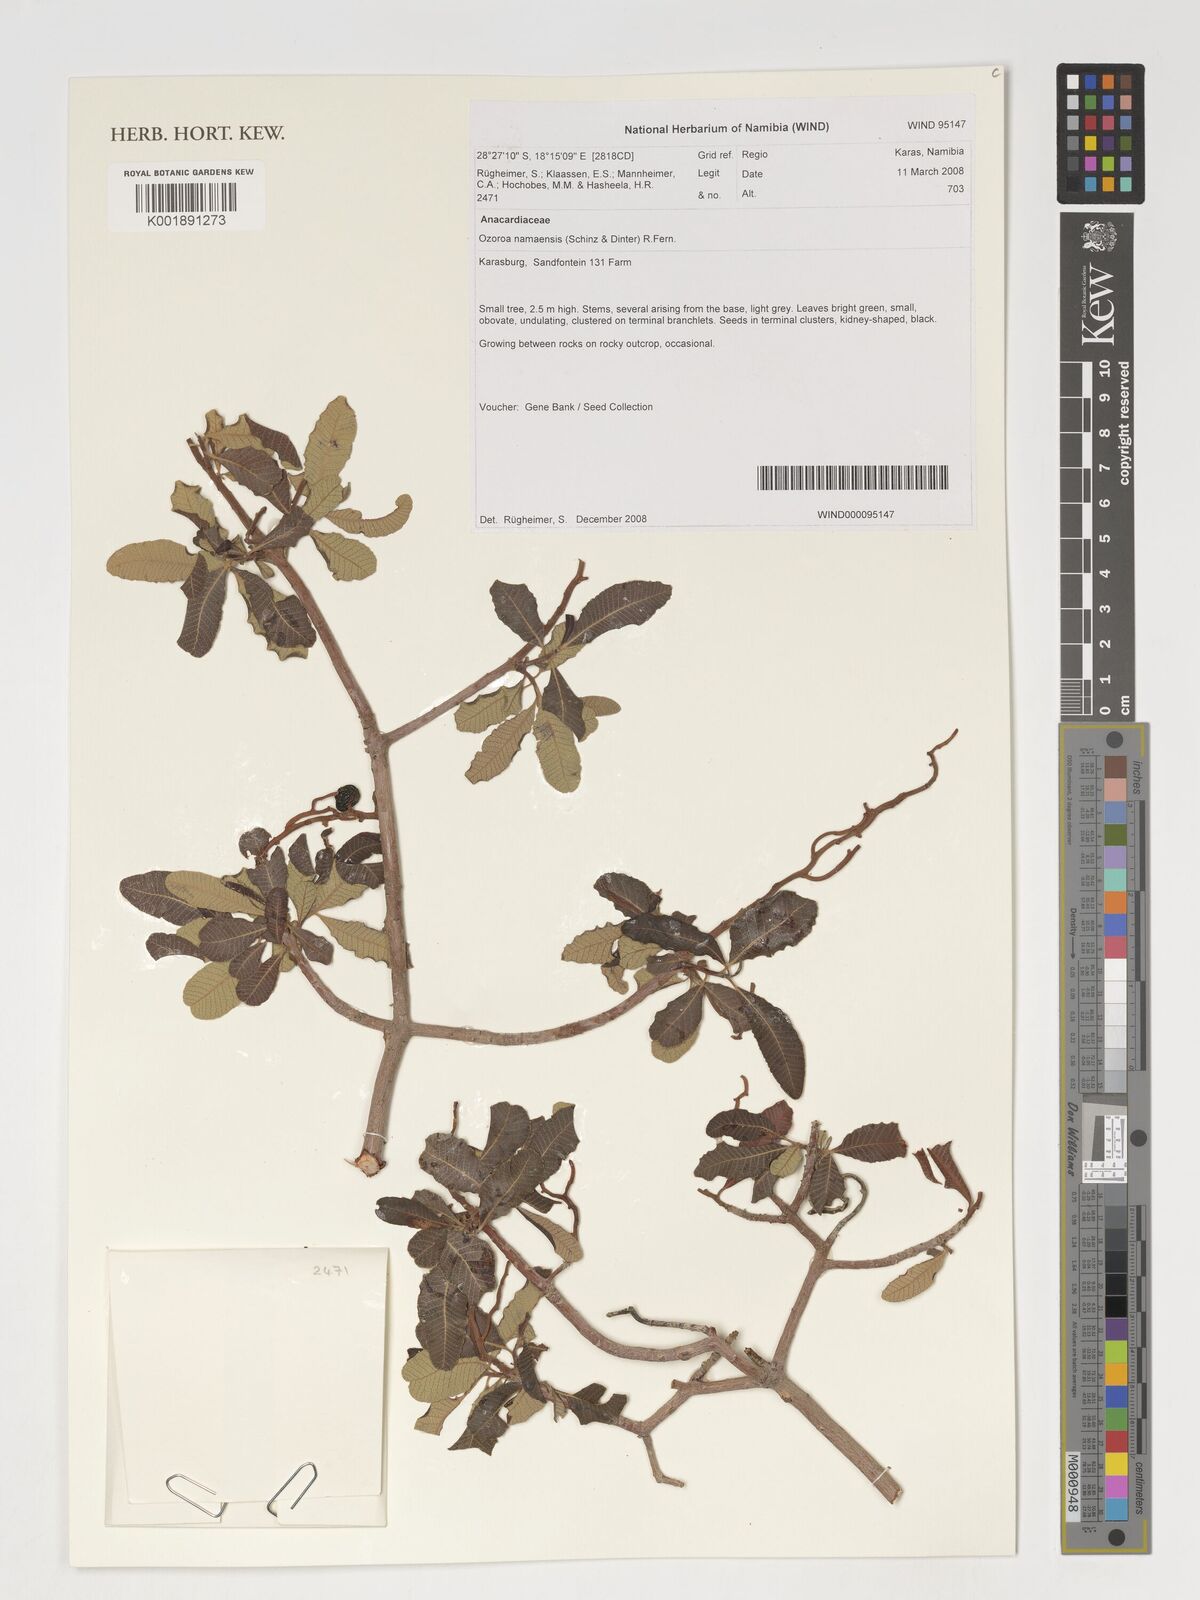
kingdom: Plantae
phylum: Tracheophyta
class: Magnoliopsida
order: Sapindales
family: Anacardiaceae
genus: Ozoroa
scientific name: Ozoroa namaensis
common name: Nama resin tree
